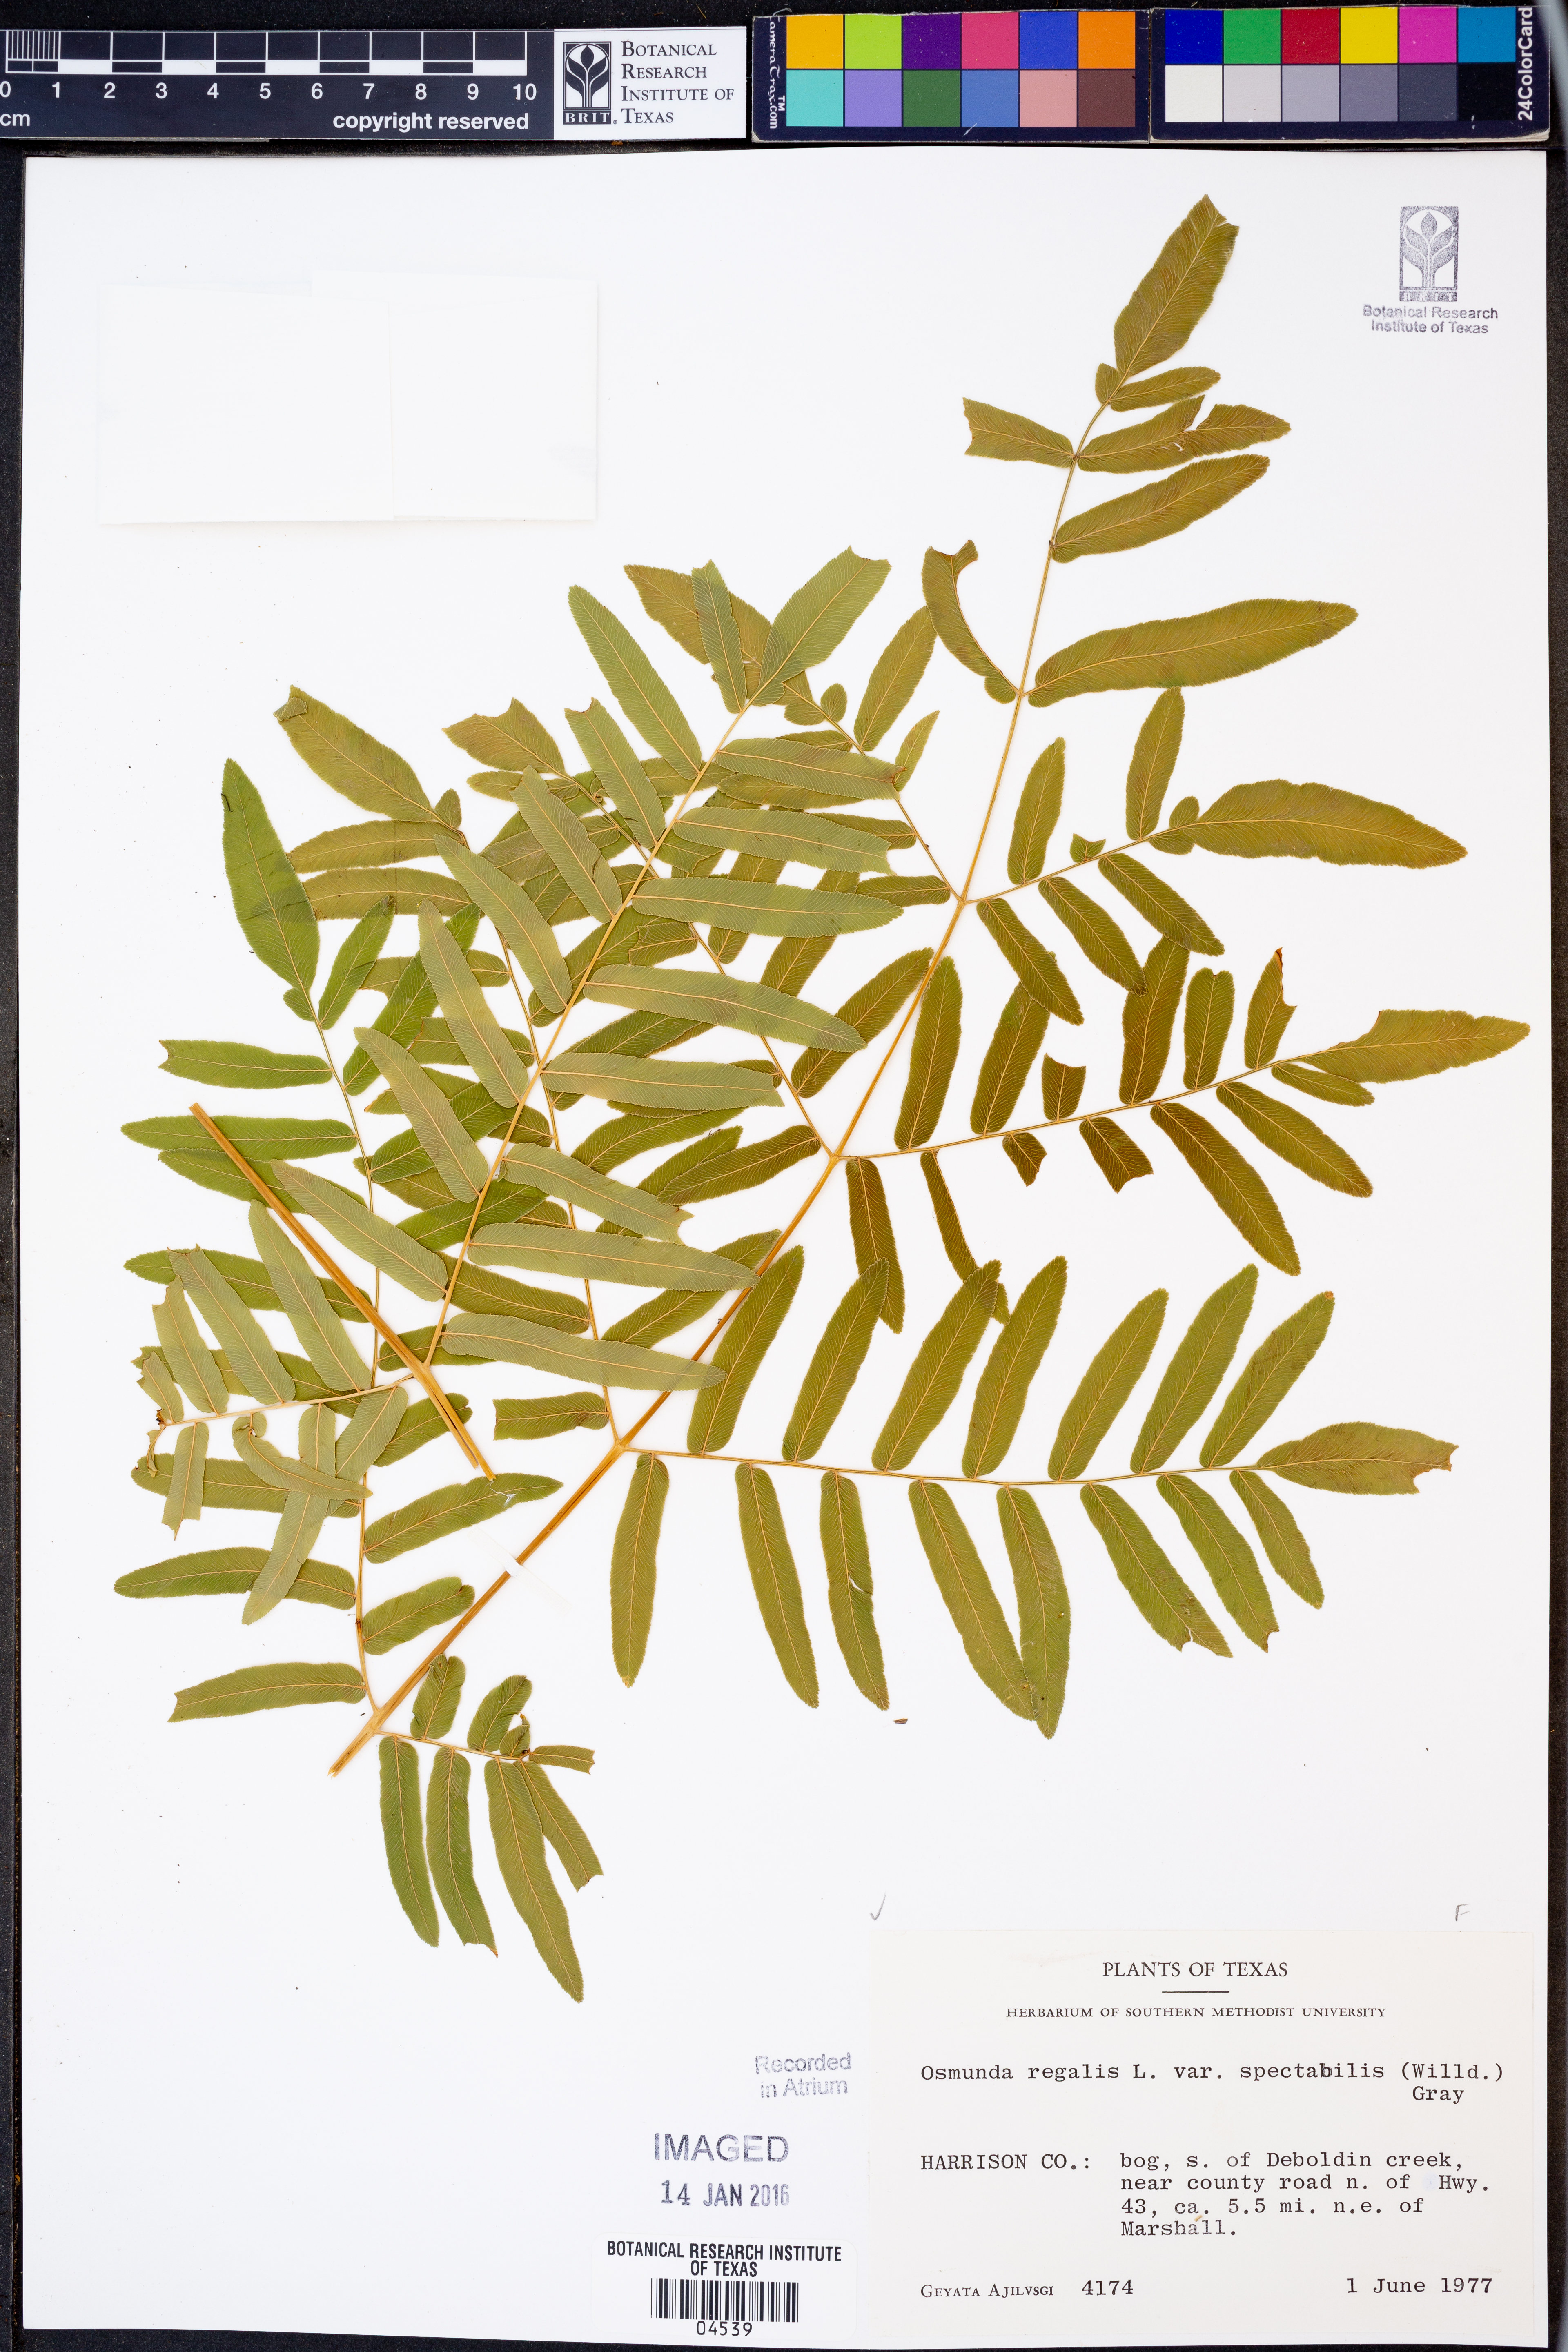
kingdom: Plantae
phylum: Tracheophyta
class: Polypodiopsida
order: Osmundales
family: Osmundaceae
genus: Osmunda
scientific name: Osmunda spectabilis
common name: American royal fern
